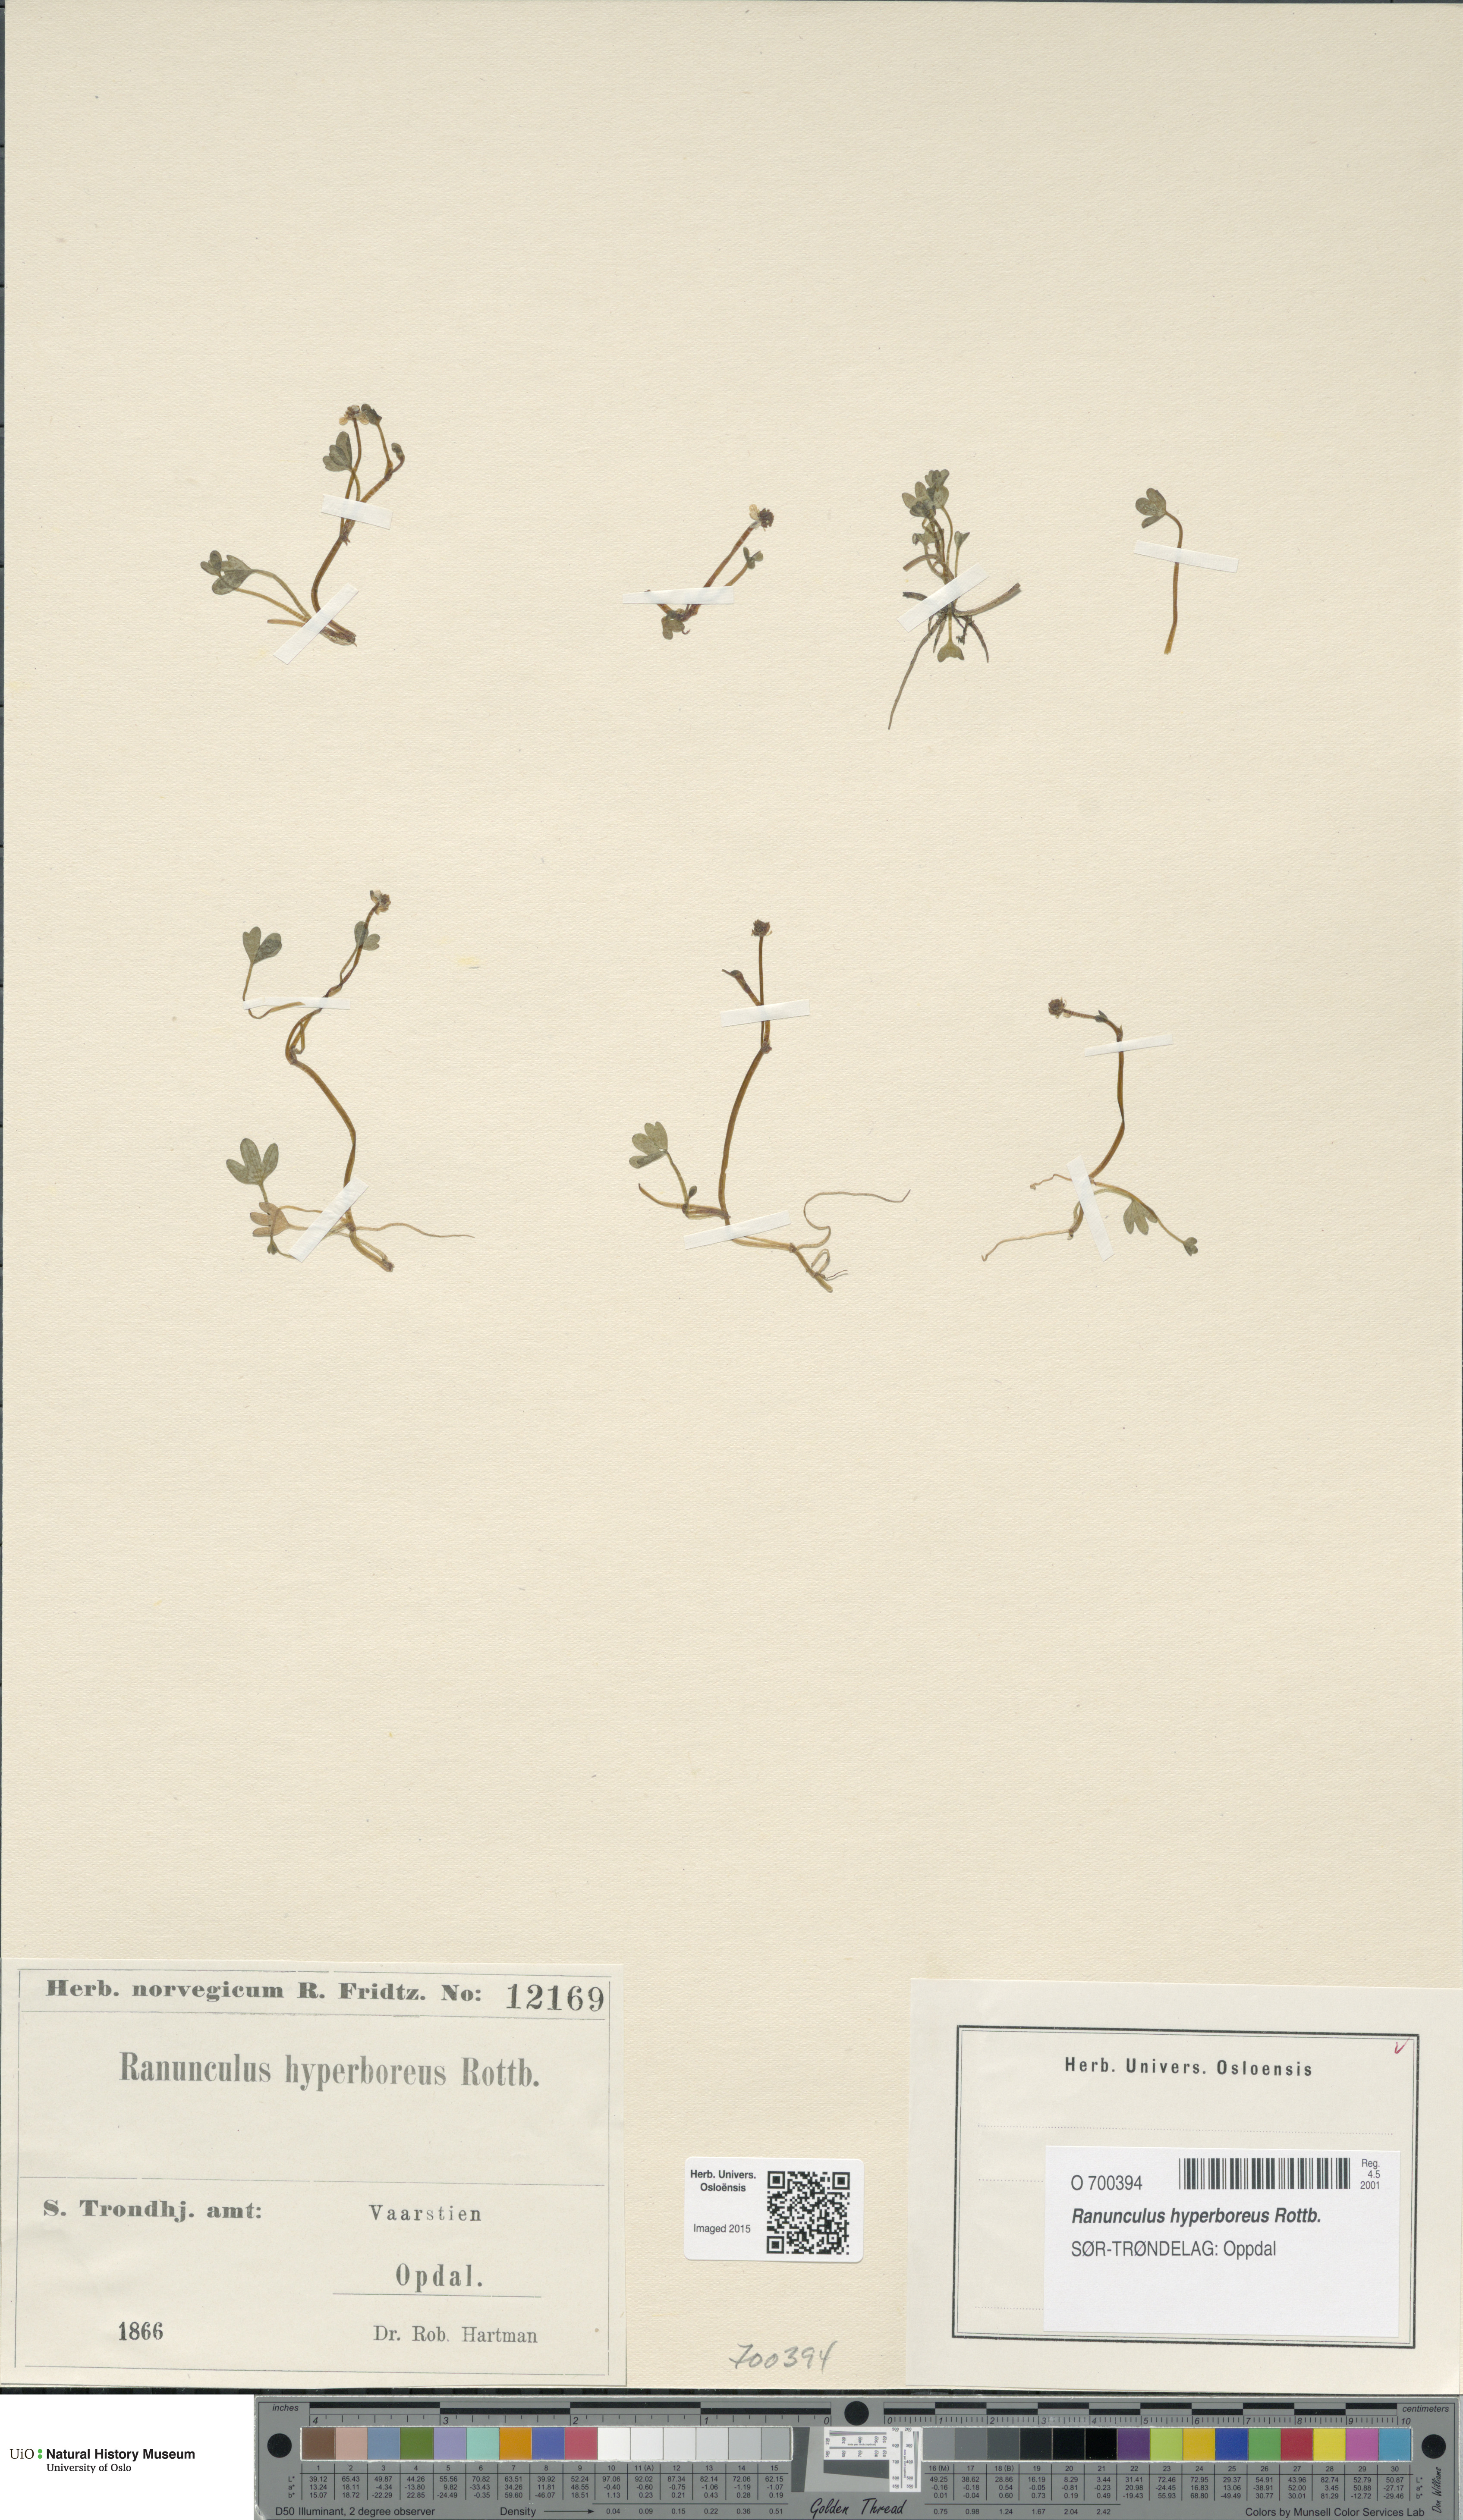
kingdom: Plantae
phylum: Tracheophyta
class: Magnoliopsida
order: Ranunculales
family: Ranunculaceae
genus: Ranunculus
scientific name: Ranunculus hyperboreus
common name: Arctic buttercup
